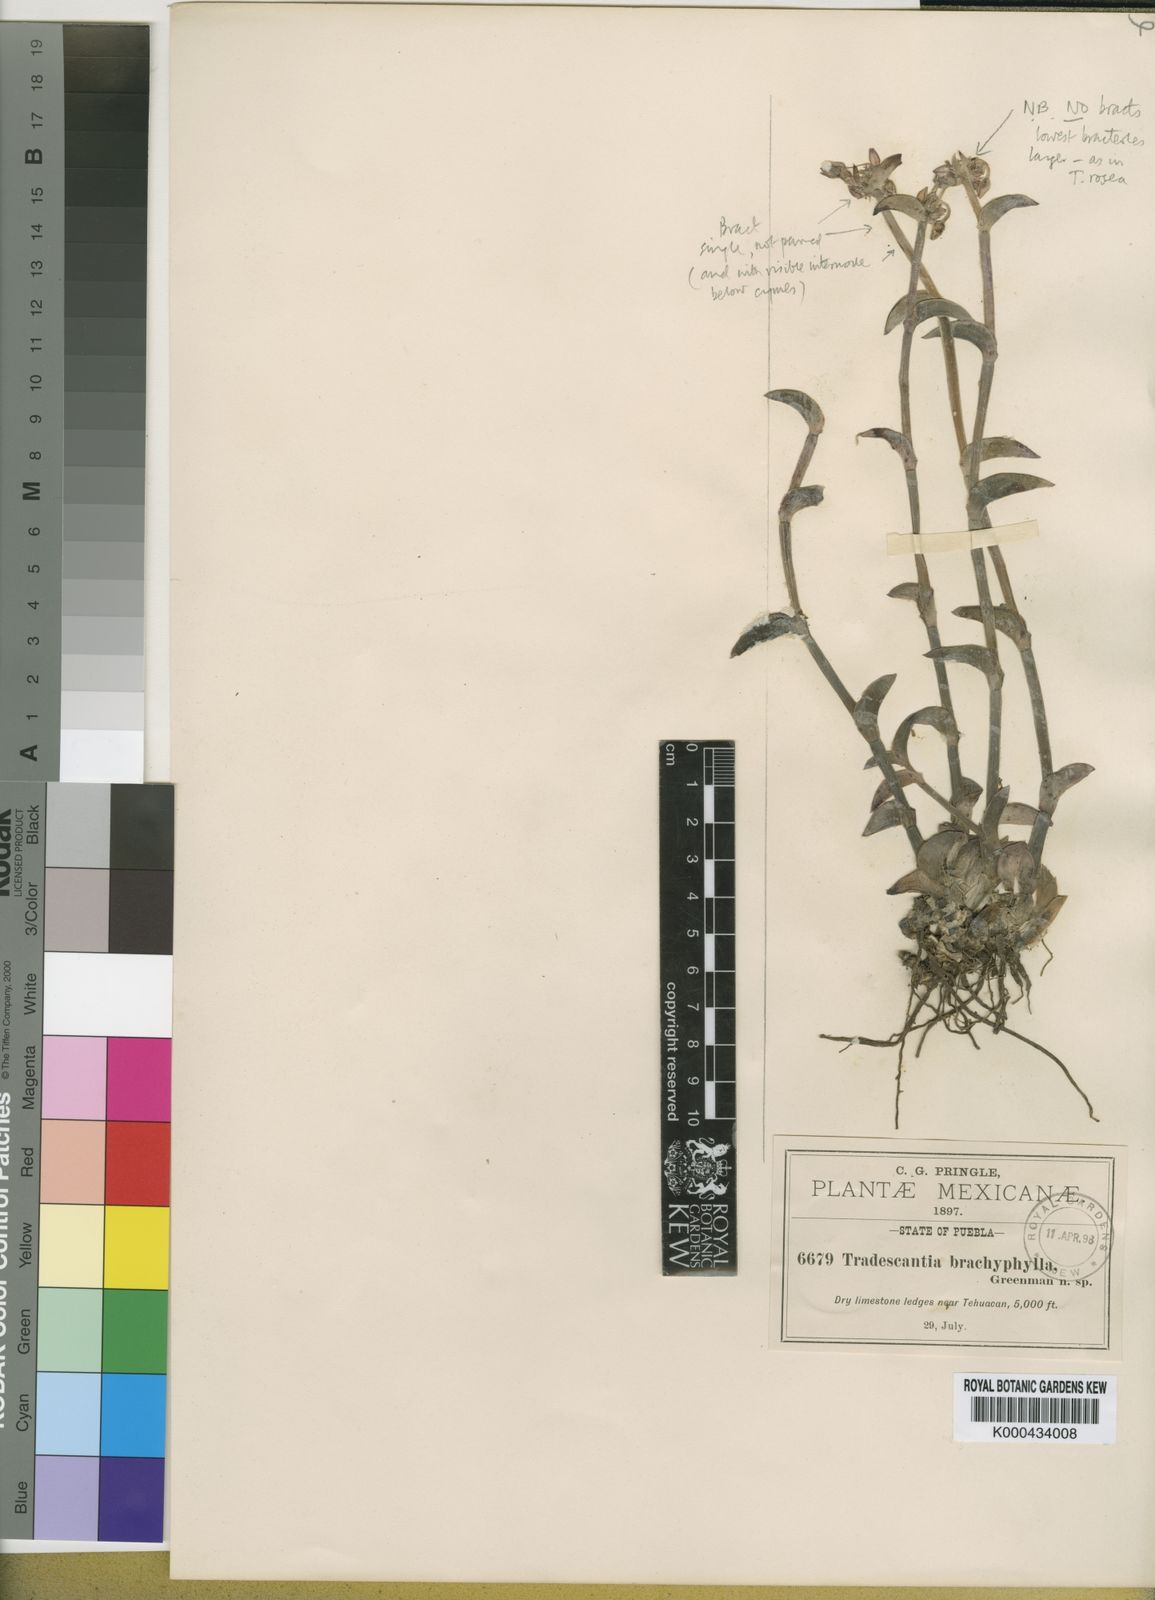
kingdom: Plantae
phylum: Tracheophyta
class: Liliopsida
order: Commelinales
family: Commelinaceae
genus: Callisia
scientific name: Callisia navicularis
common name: Chainplant
